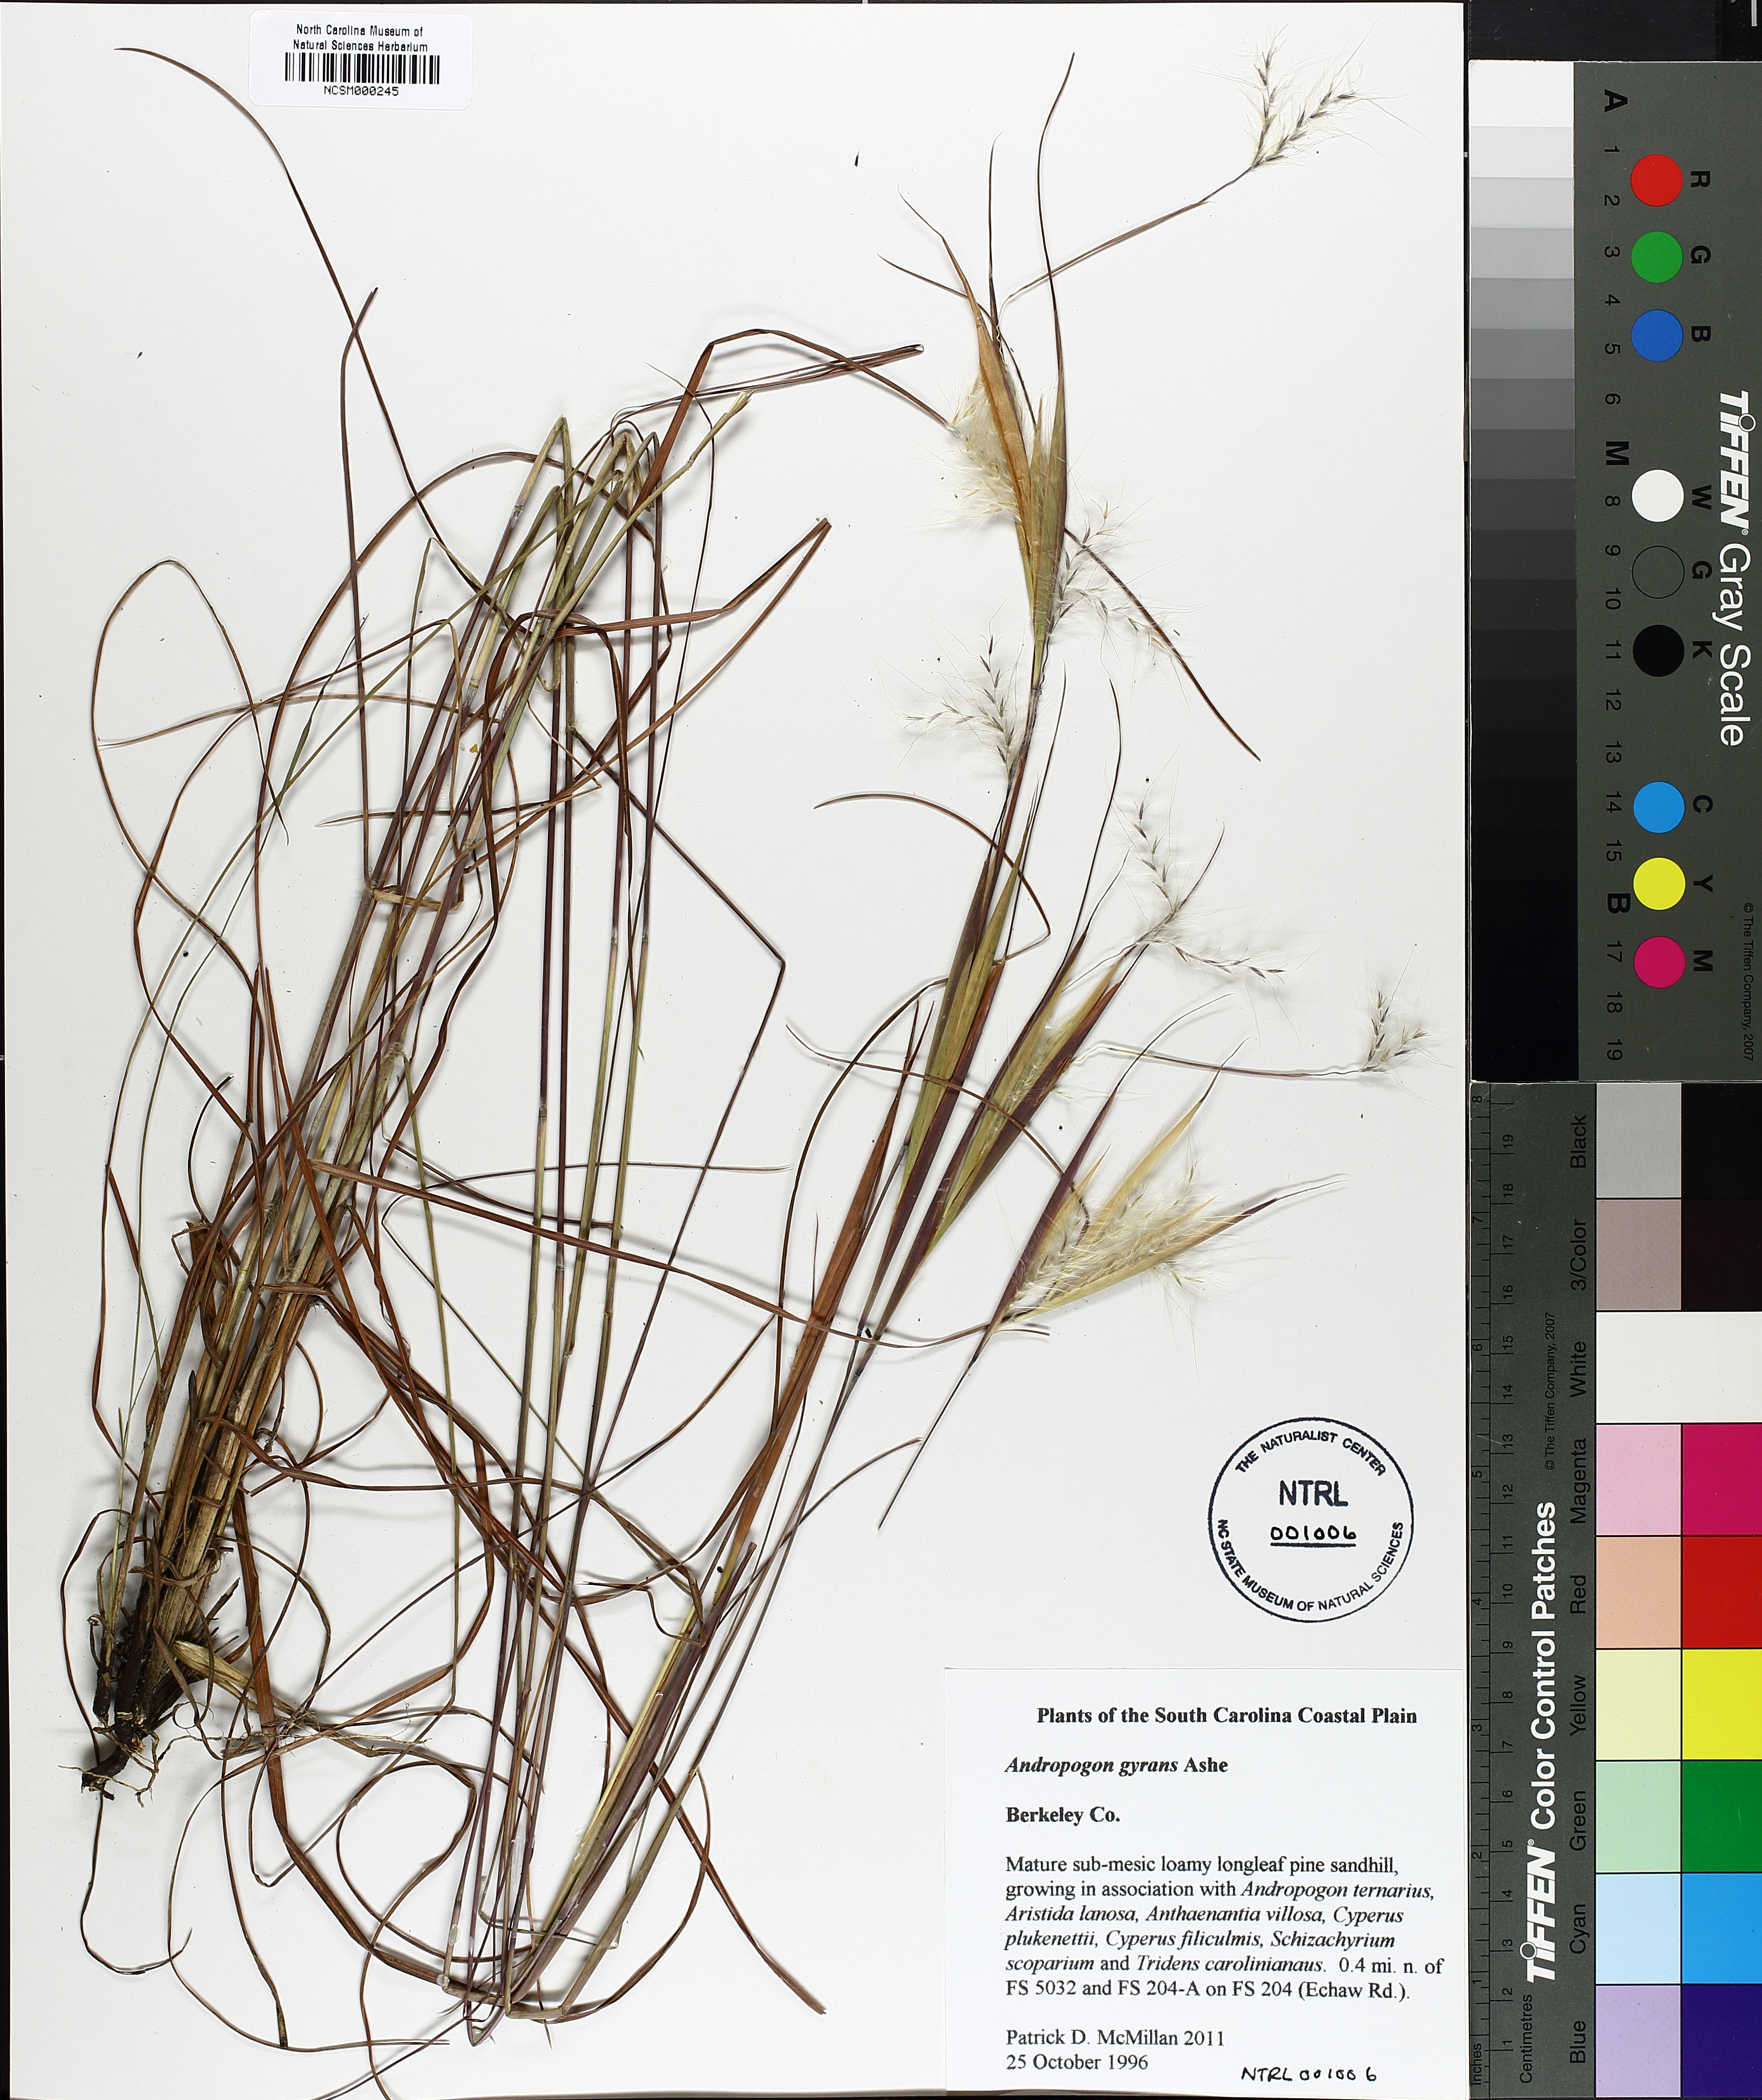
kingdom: Plantae
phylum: Tracheophyta
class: Liliopsida
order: Poales
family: Poaceae
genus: Andropogon
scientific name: Andropogon gyrans
